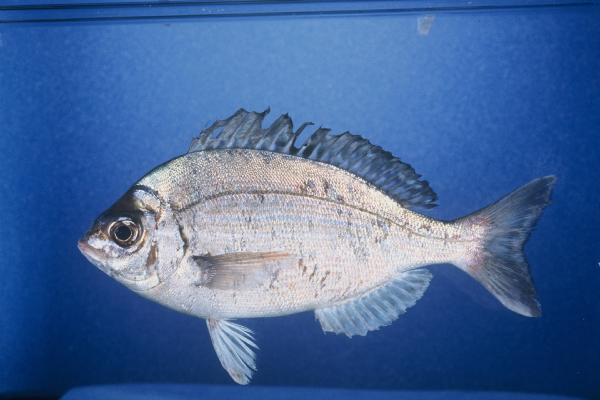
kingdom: Animalia
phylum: Chordata
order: Perciformes
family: Sparidae
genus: Spondyliosoma
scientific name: Spondyliosoma emarginatum
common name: Steentje seabream
